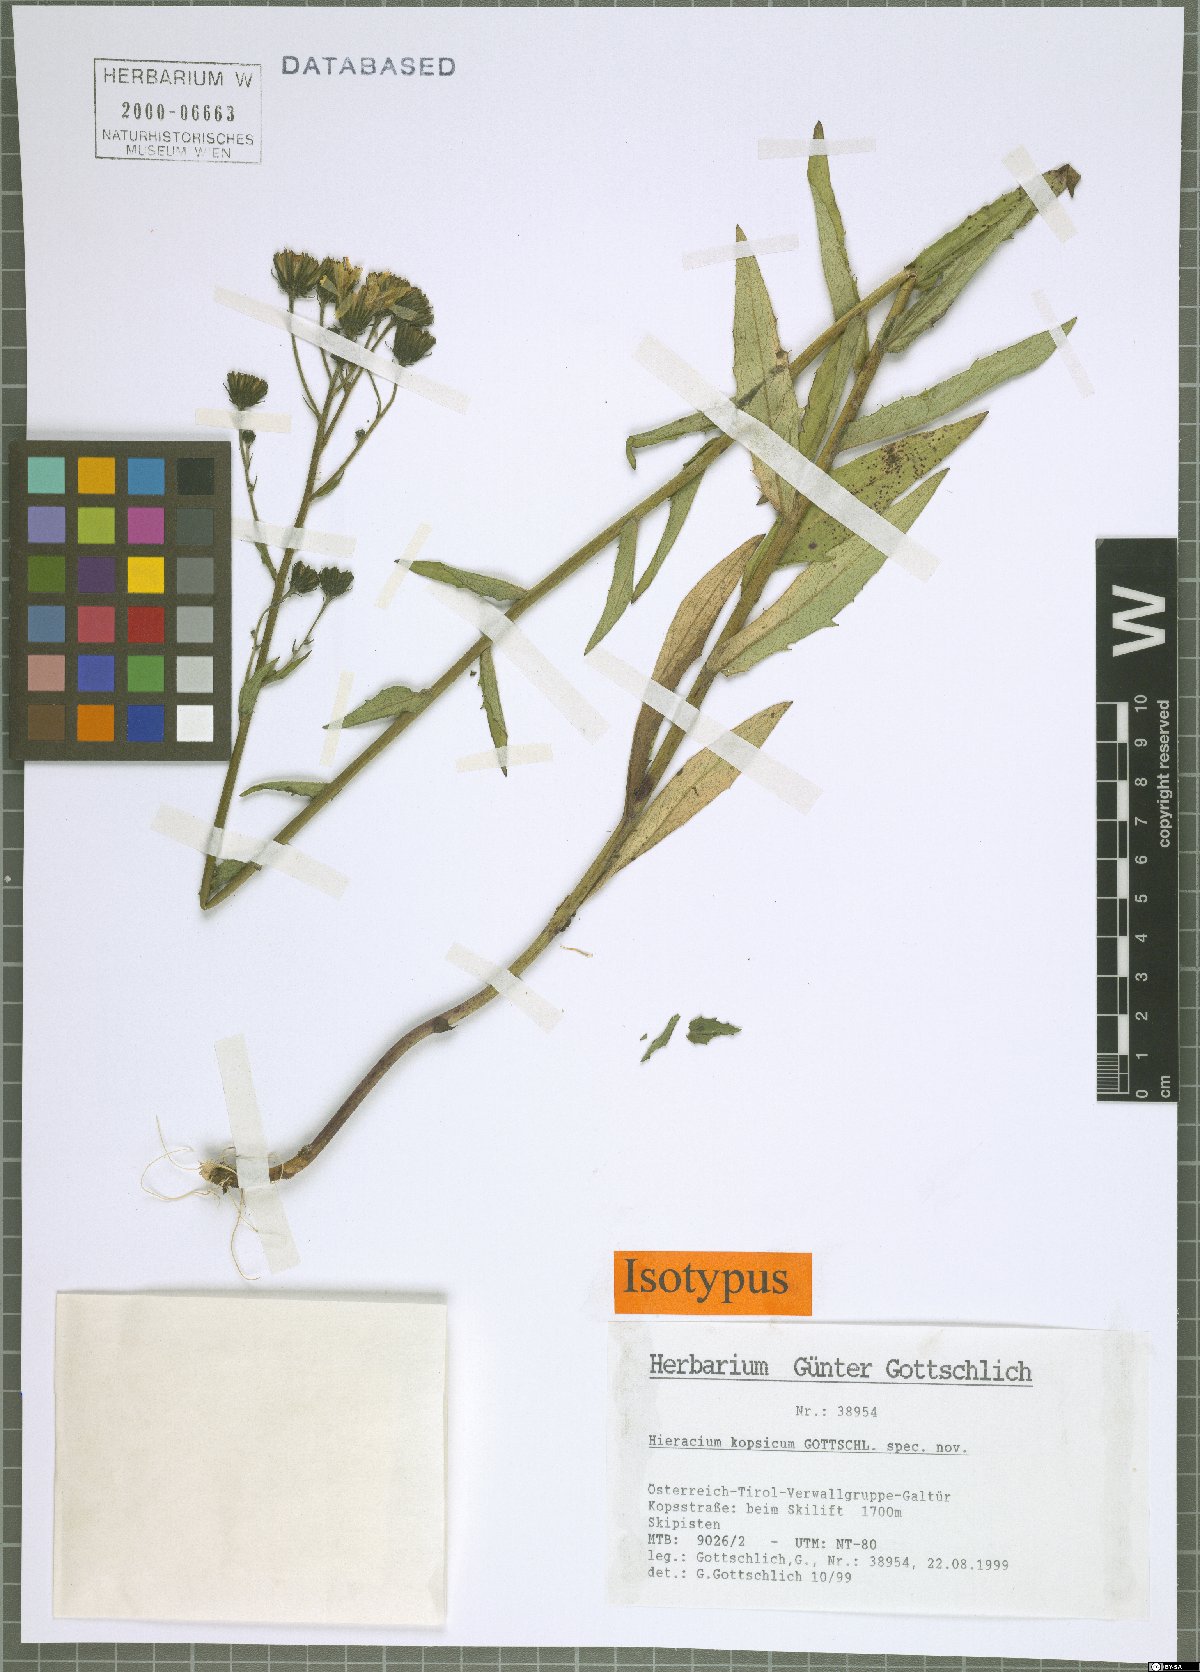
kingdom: Plantae
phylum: Tracheophyta
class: Magnoliopsida
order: Asterales
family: Asteraceae
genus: Hieracium
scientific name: Hieracium kopsicum
